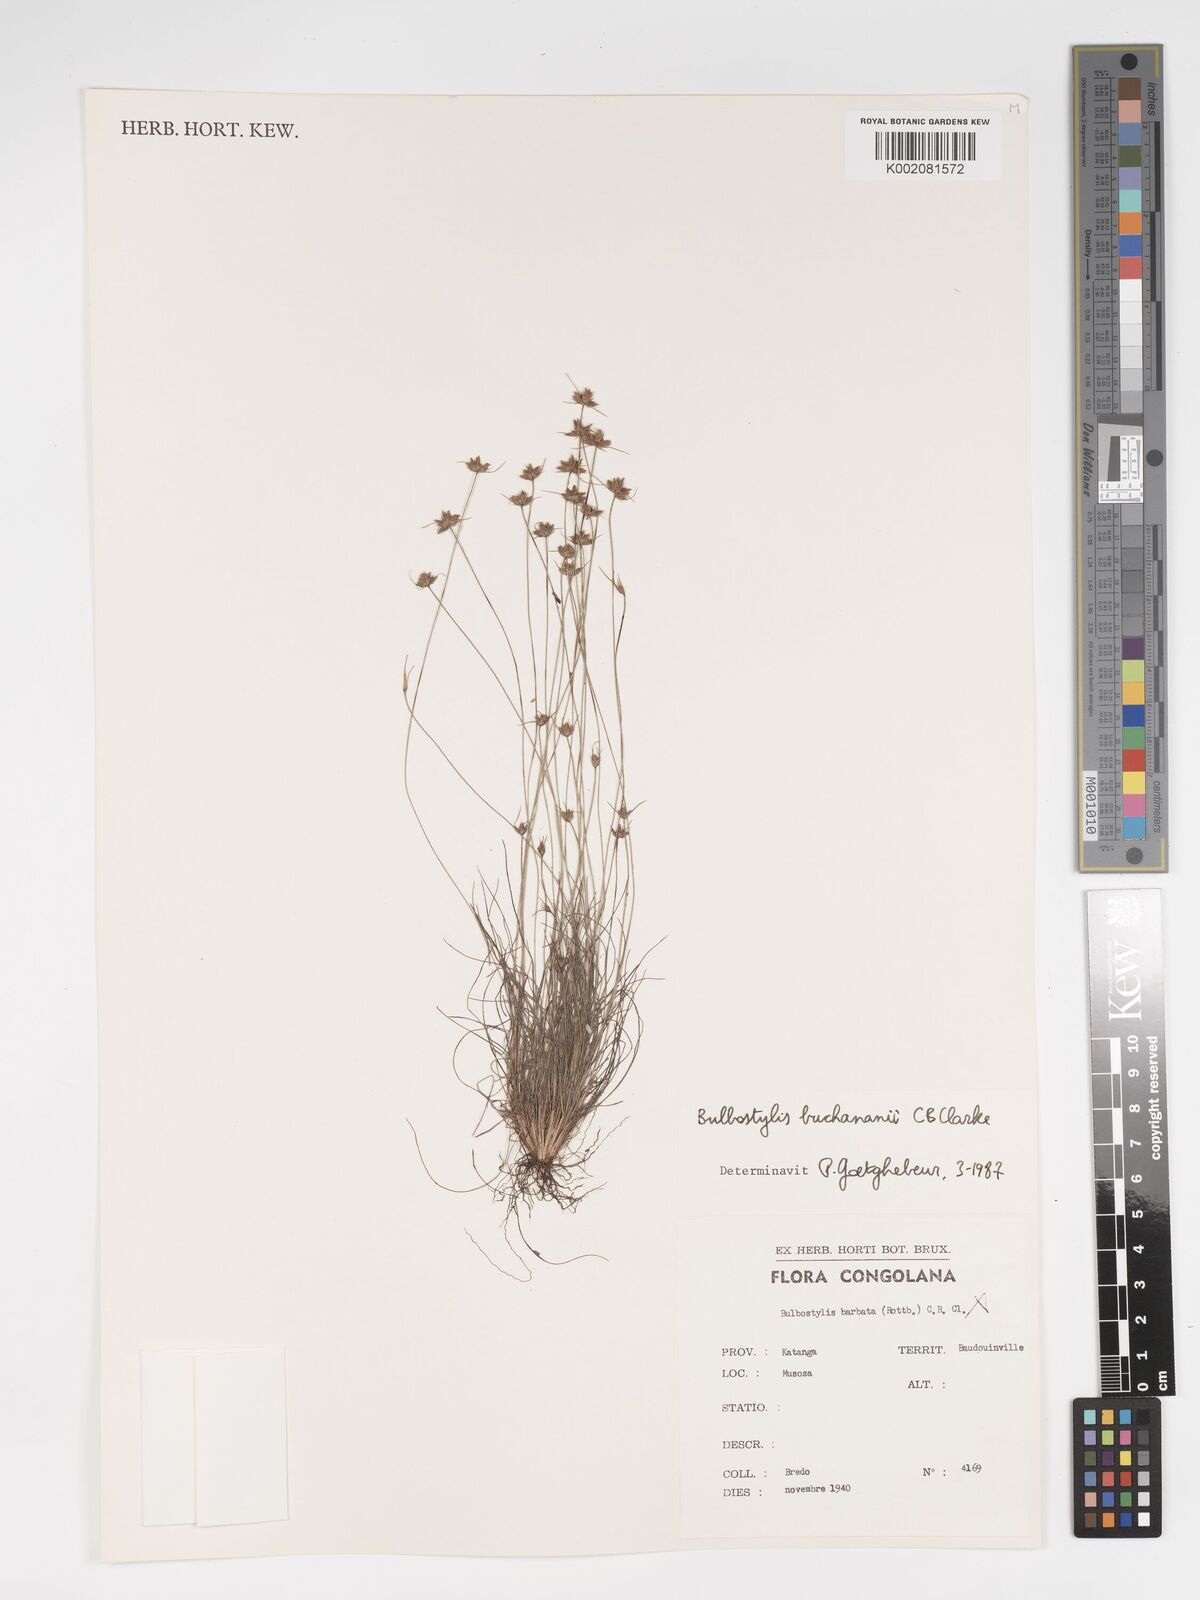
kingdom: Plantae
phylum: Tracheophyta
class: Liliopsida
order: Poales
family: Cyperaceae
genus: Bulbostylis
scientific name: Bulbostylis buchananii
